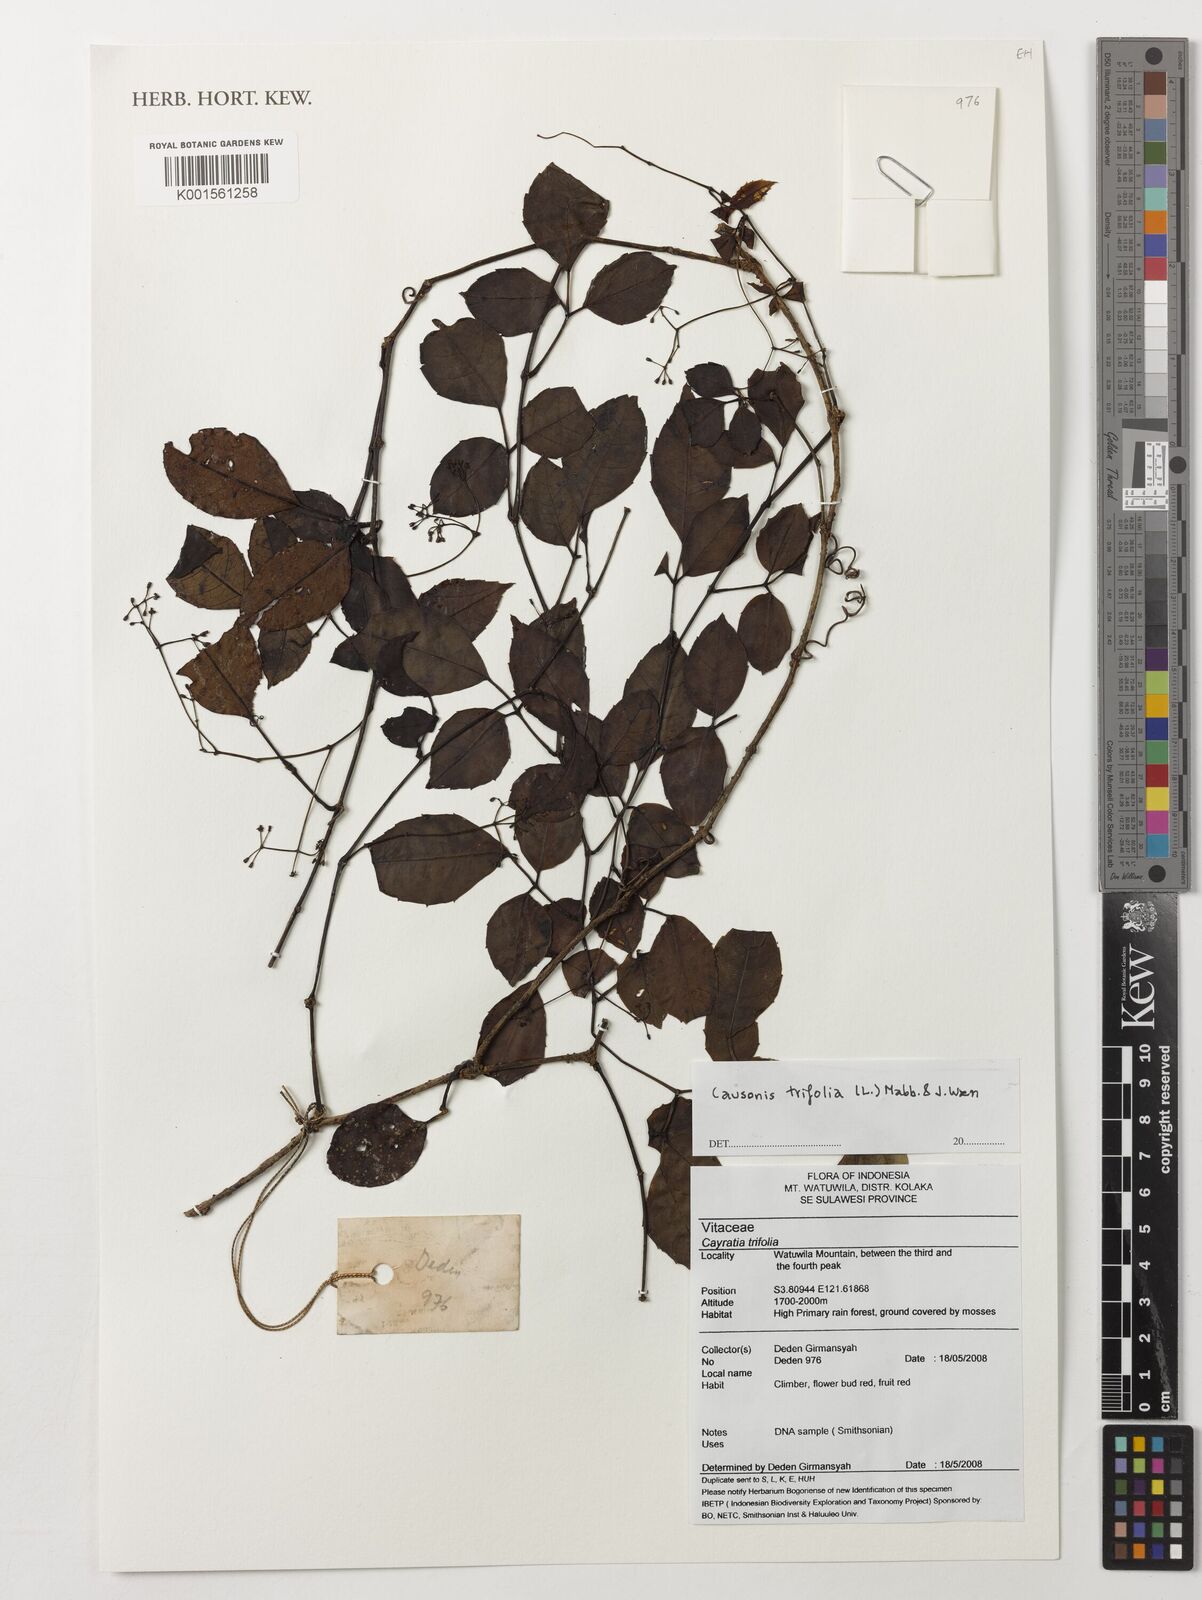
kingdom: Plantae
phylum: Tracheophyta
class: Magnoliopsida
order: Vitales
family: Vitaceae
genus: Causonis
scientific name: Causonis trifolia
